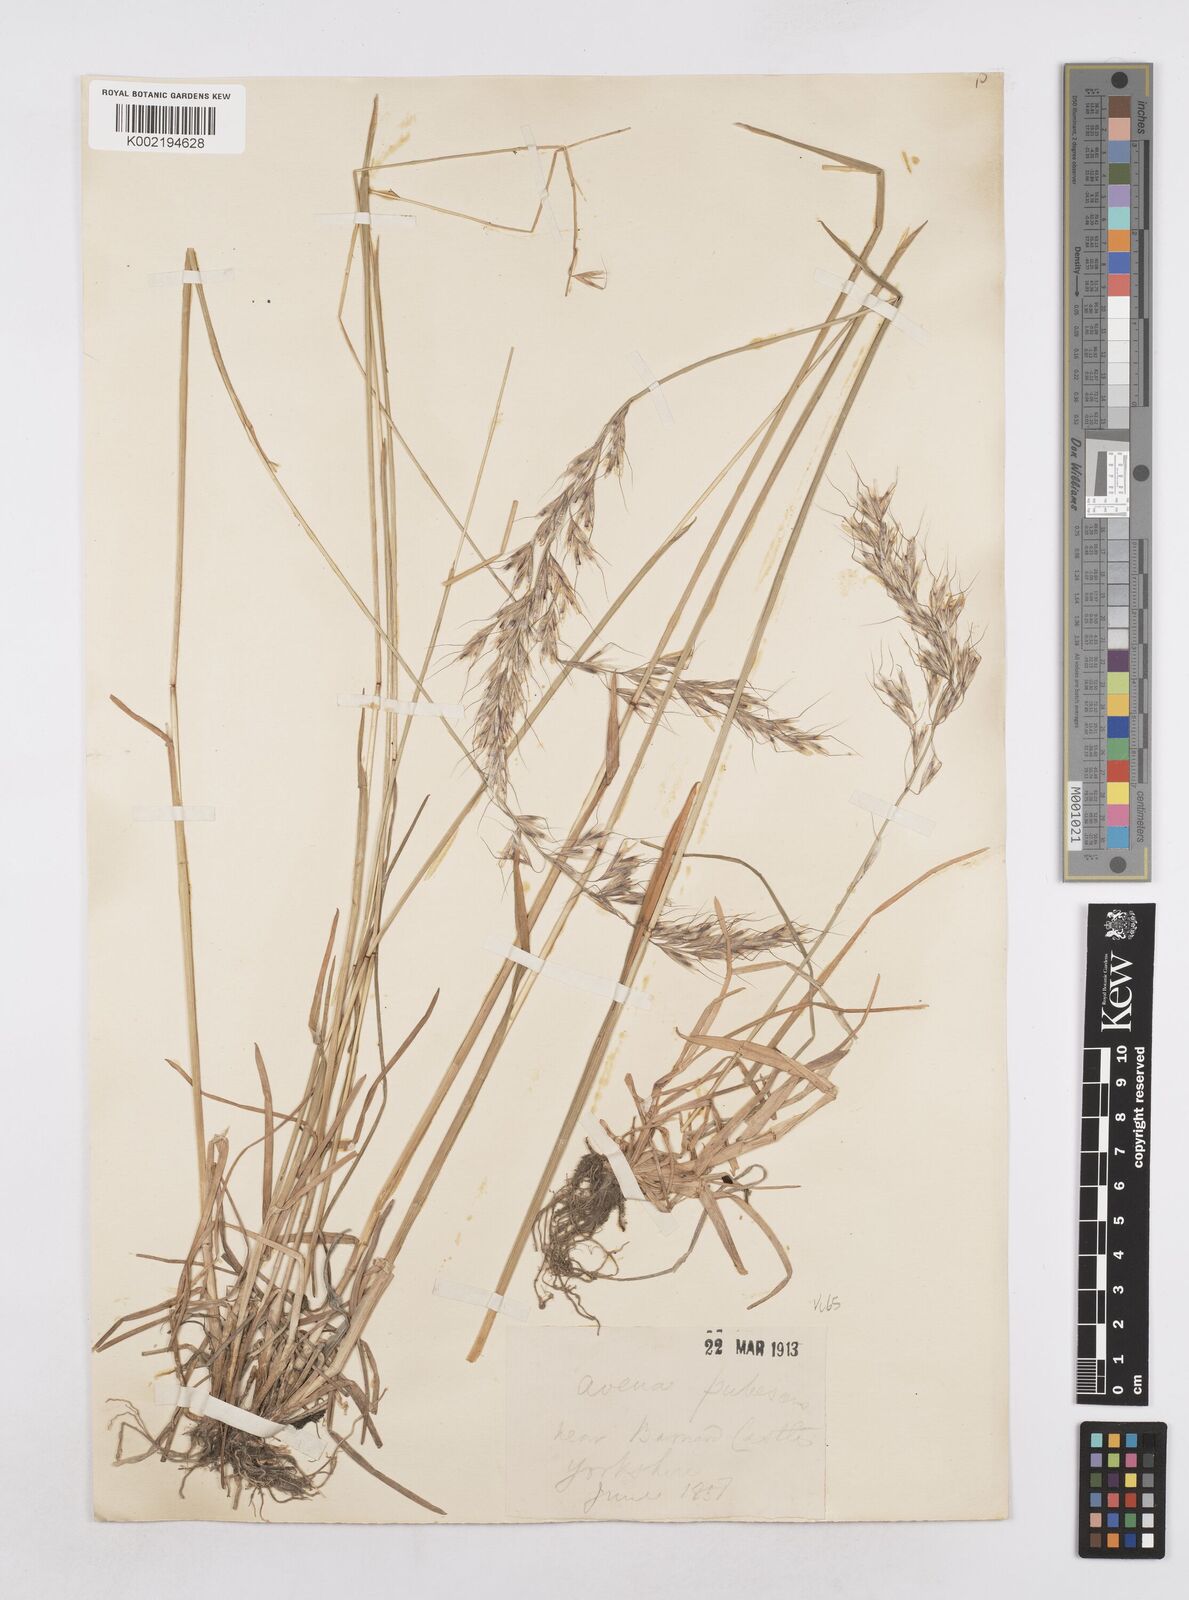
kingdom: Plantae
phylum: Tracheophyta
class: Liliopsida
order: Poales
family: Poaceae
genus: Avenula
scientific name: Avenula pubescens
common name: Downy alpine oatgrass
